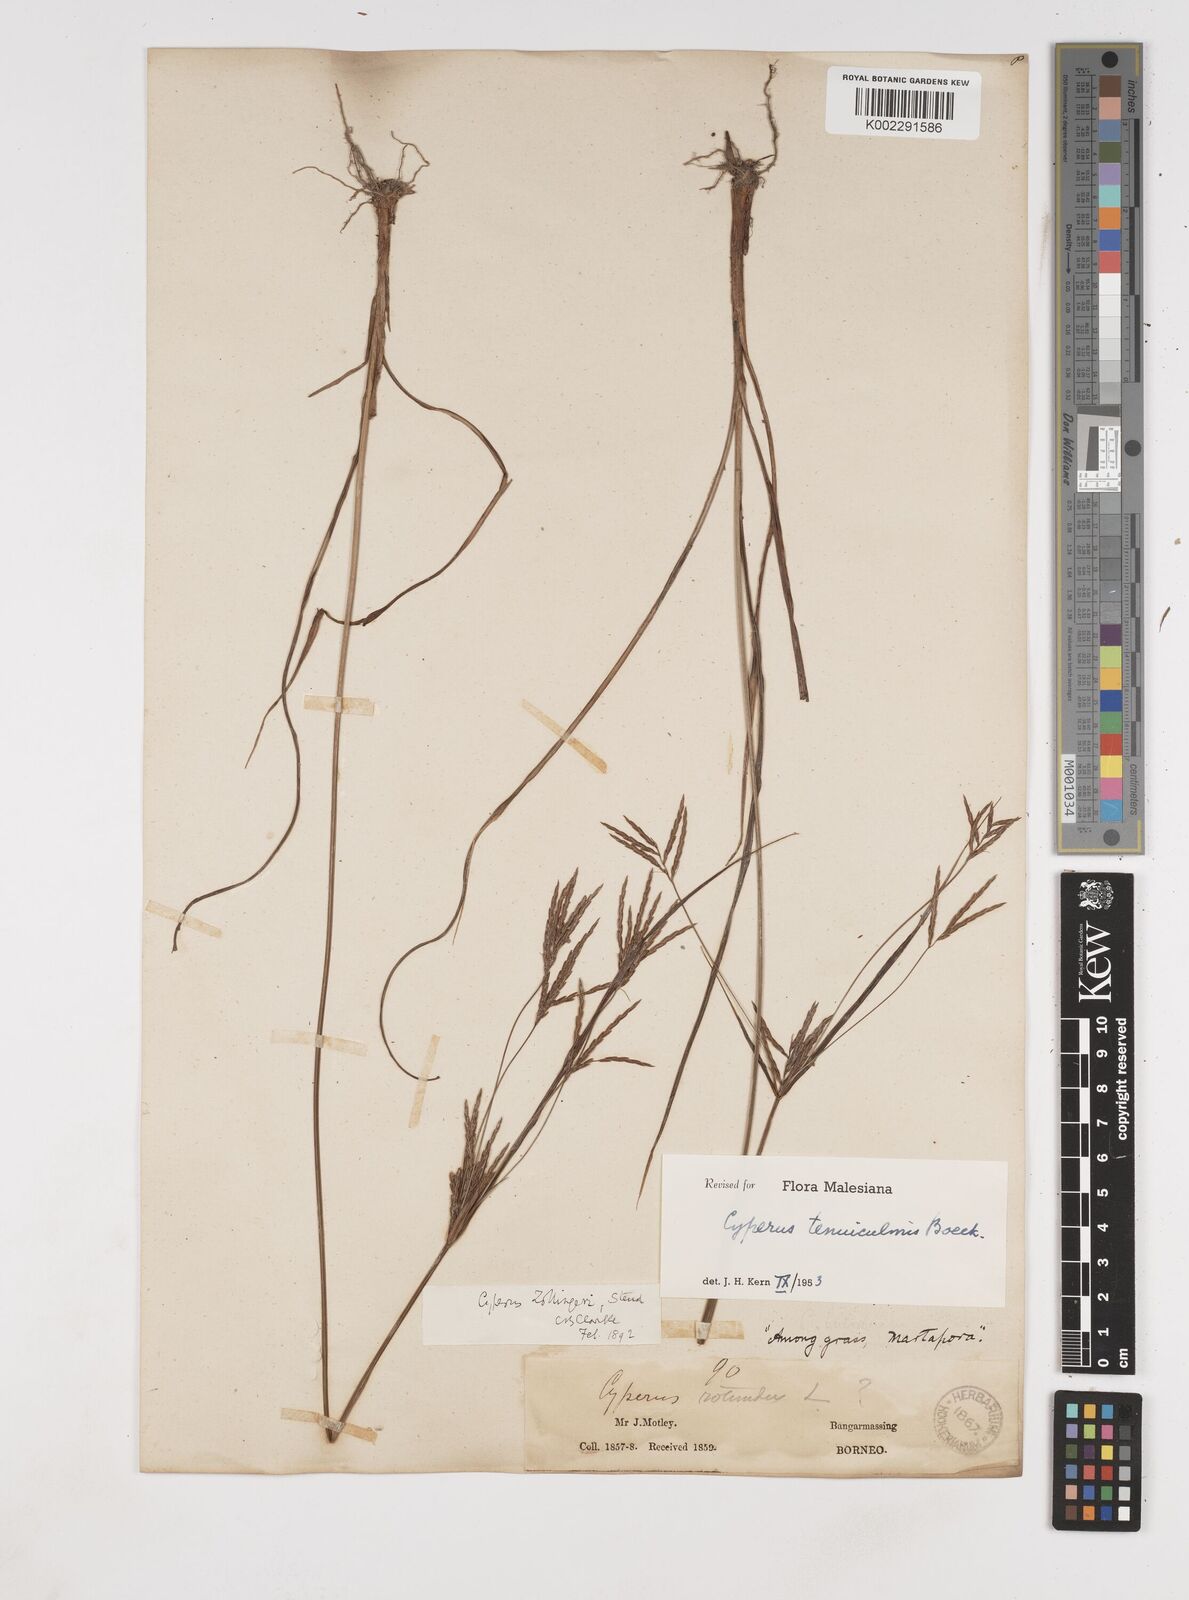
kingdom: Plantae
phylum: Tracheophyta
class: Liliopsida
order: Poales
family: Cyperaceae
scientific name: Cyperaceae
